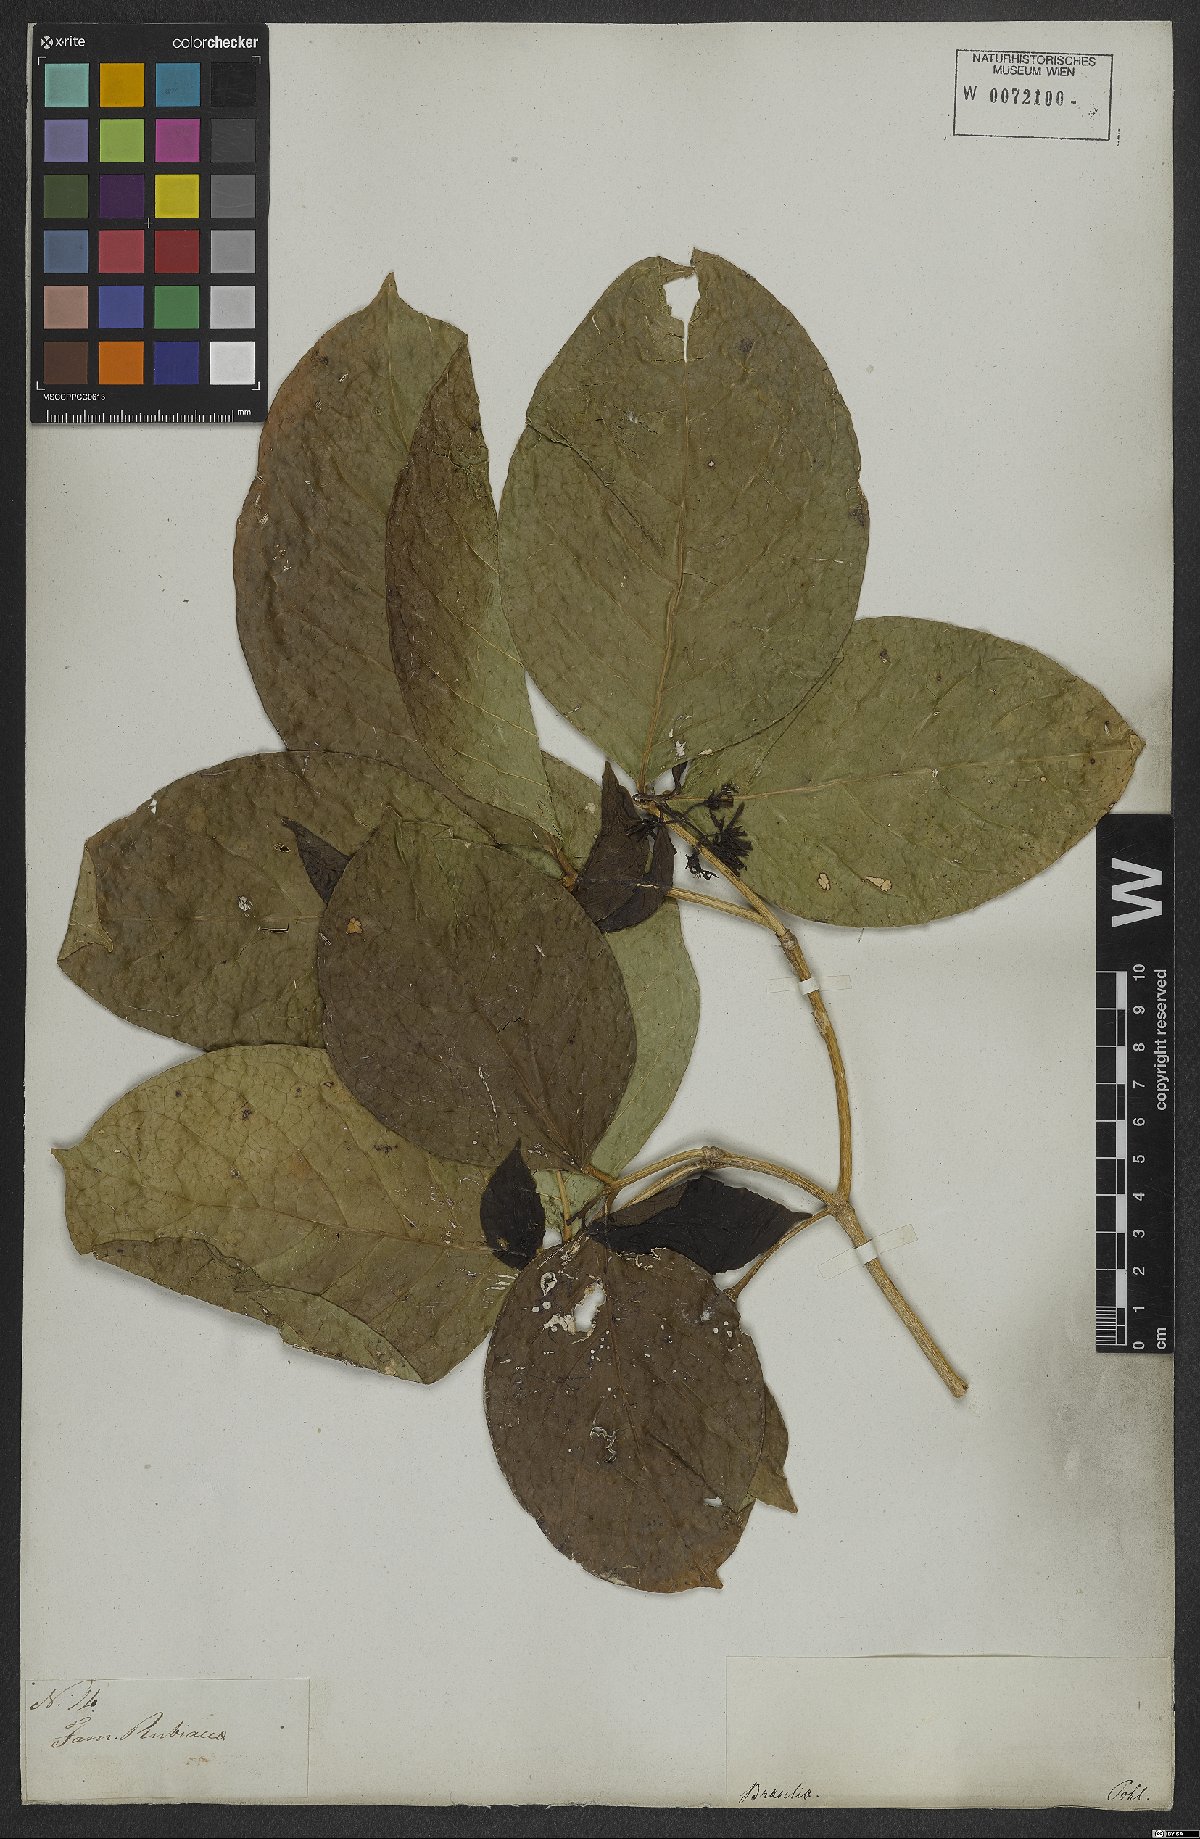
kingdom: Plantae
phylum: Tracheophyta
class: Magnoliopsida
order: Gentianales
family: Rubiaceae
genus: Coussarea
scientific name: Coussarea hydrangeifolia
